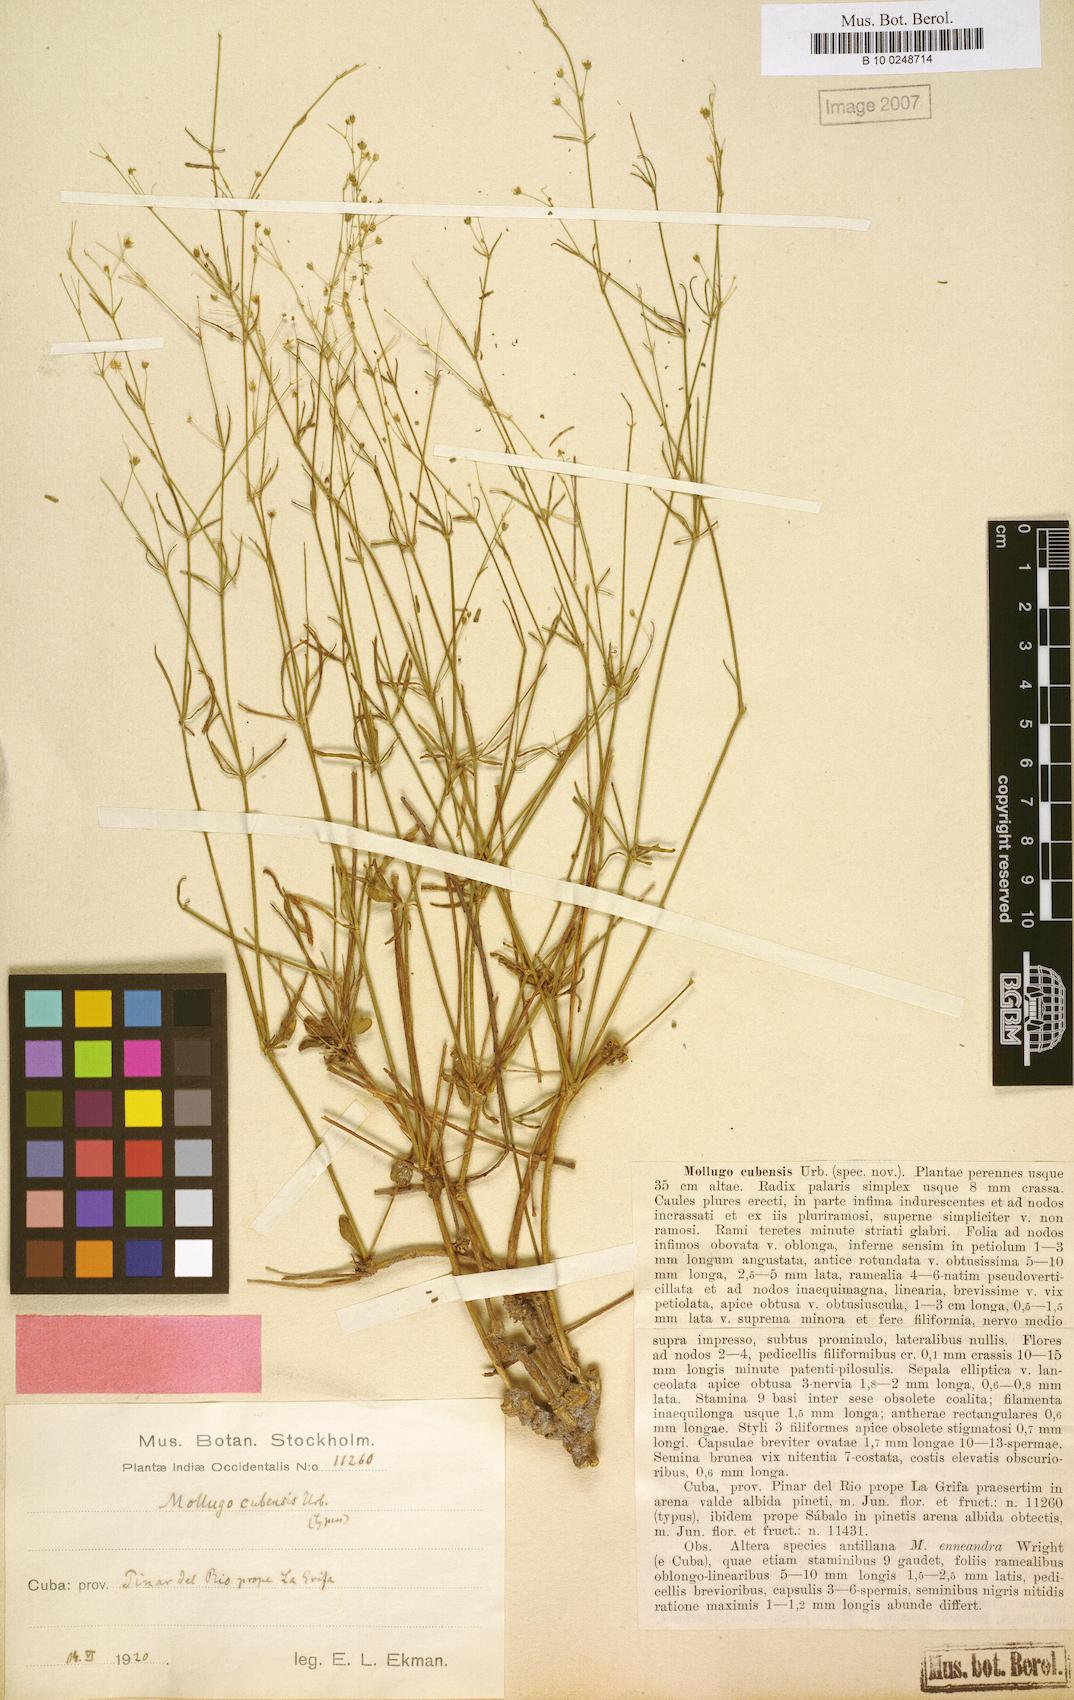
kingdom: Plantae
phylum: Tracheophyta
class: Magnoliopsida
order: Caryophyllales
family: Molluginaceae
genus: Mollugo
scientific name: Mollugo cubensis
